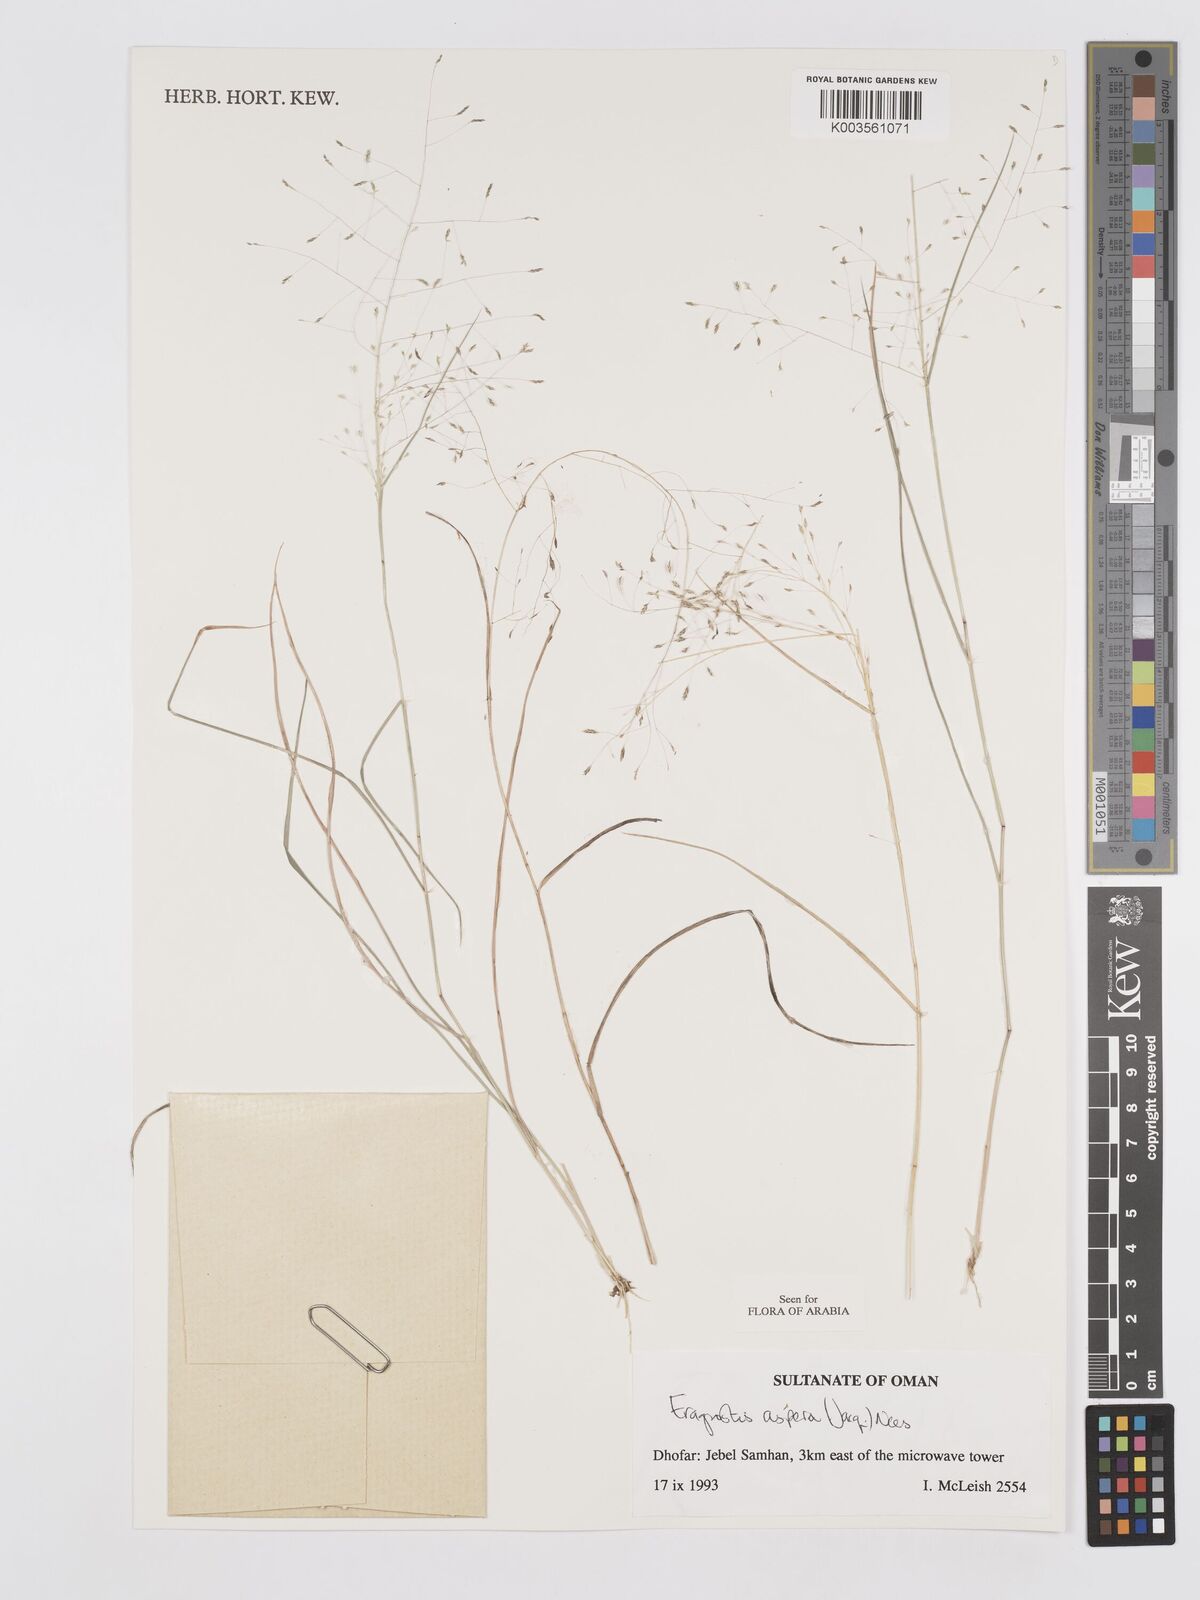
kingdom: Plantae
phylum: Tracheophyta
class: Liliopsida
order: Poales
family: Poaceae
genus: Eragrostis
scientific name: Eragrostis aspera
